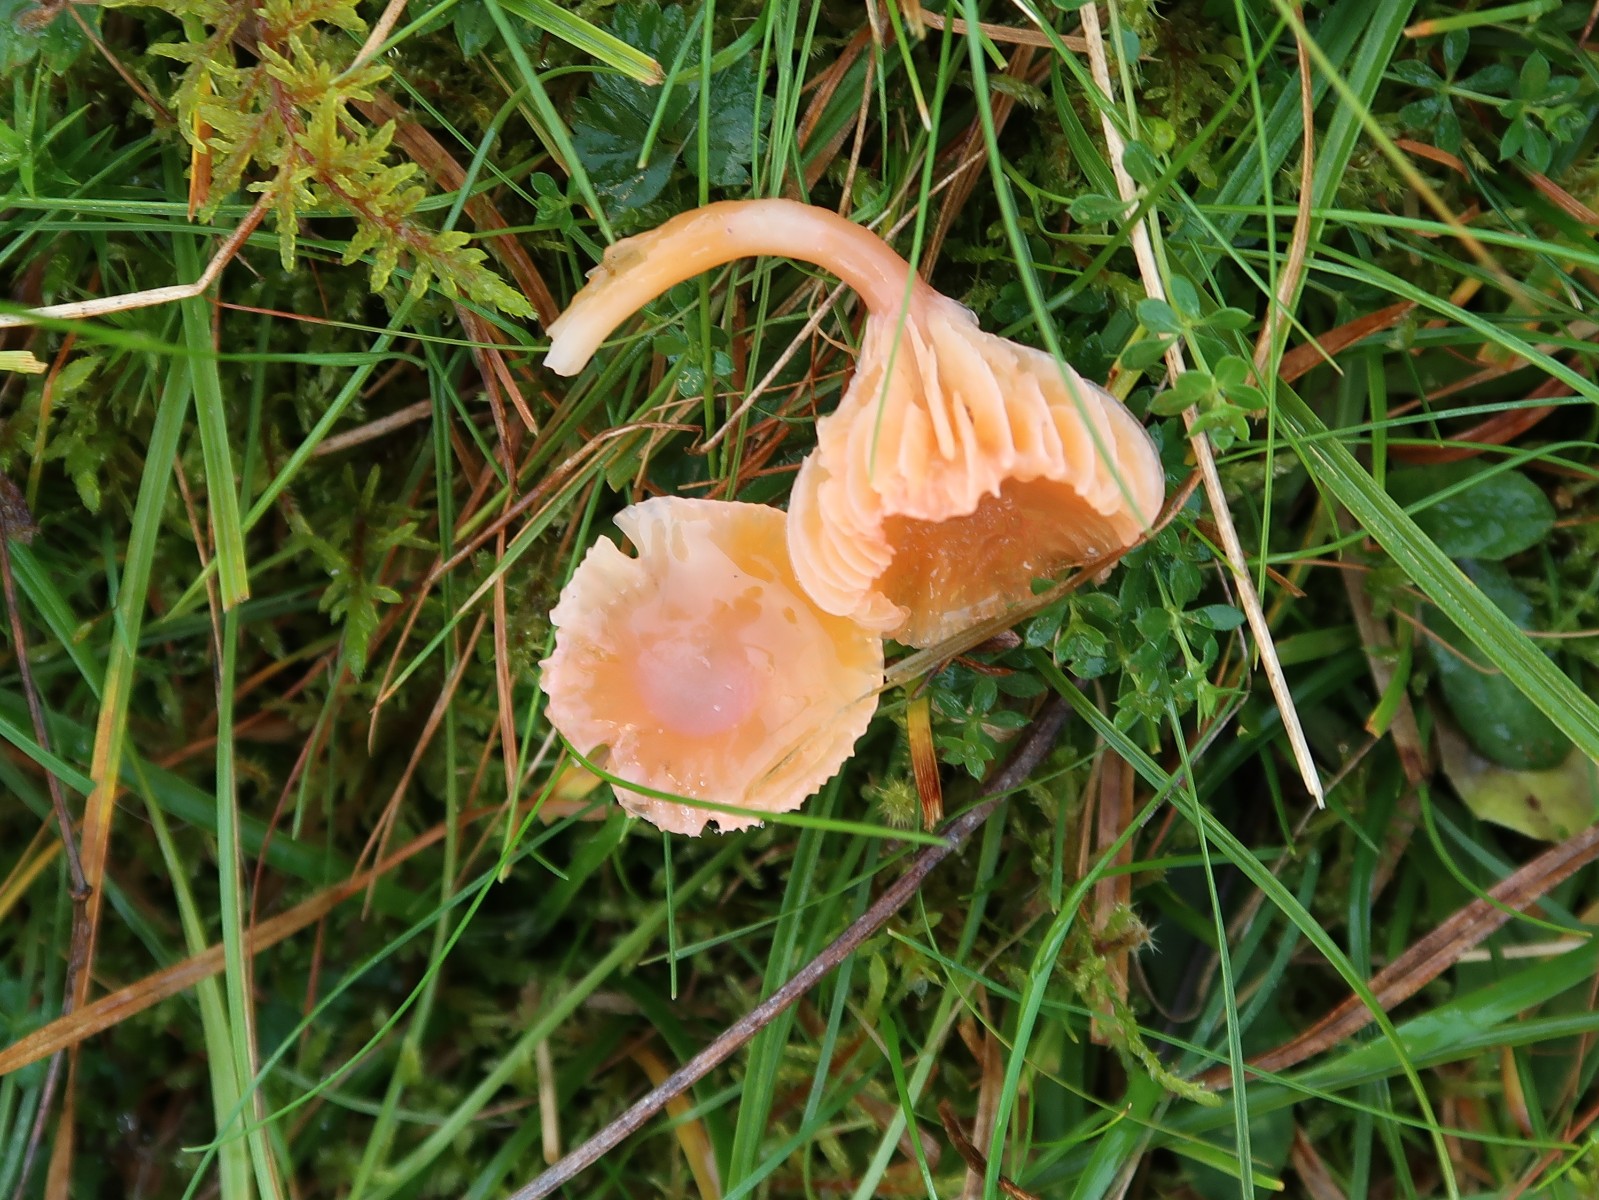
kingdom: Fungi
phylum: Basidiomycota
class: Agaricomycetes
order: Agaricales
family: Hygrophoraceae
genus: Gliophorus
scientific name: Gliophorus laetus
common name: brusk-vokshat
